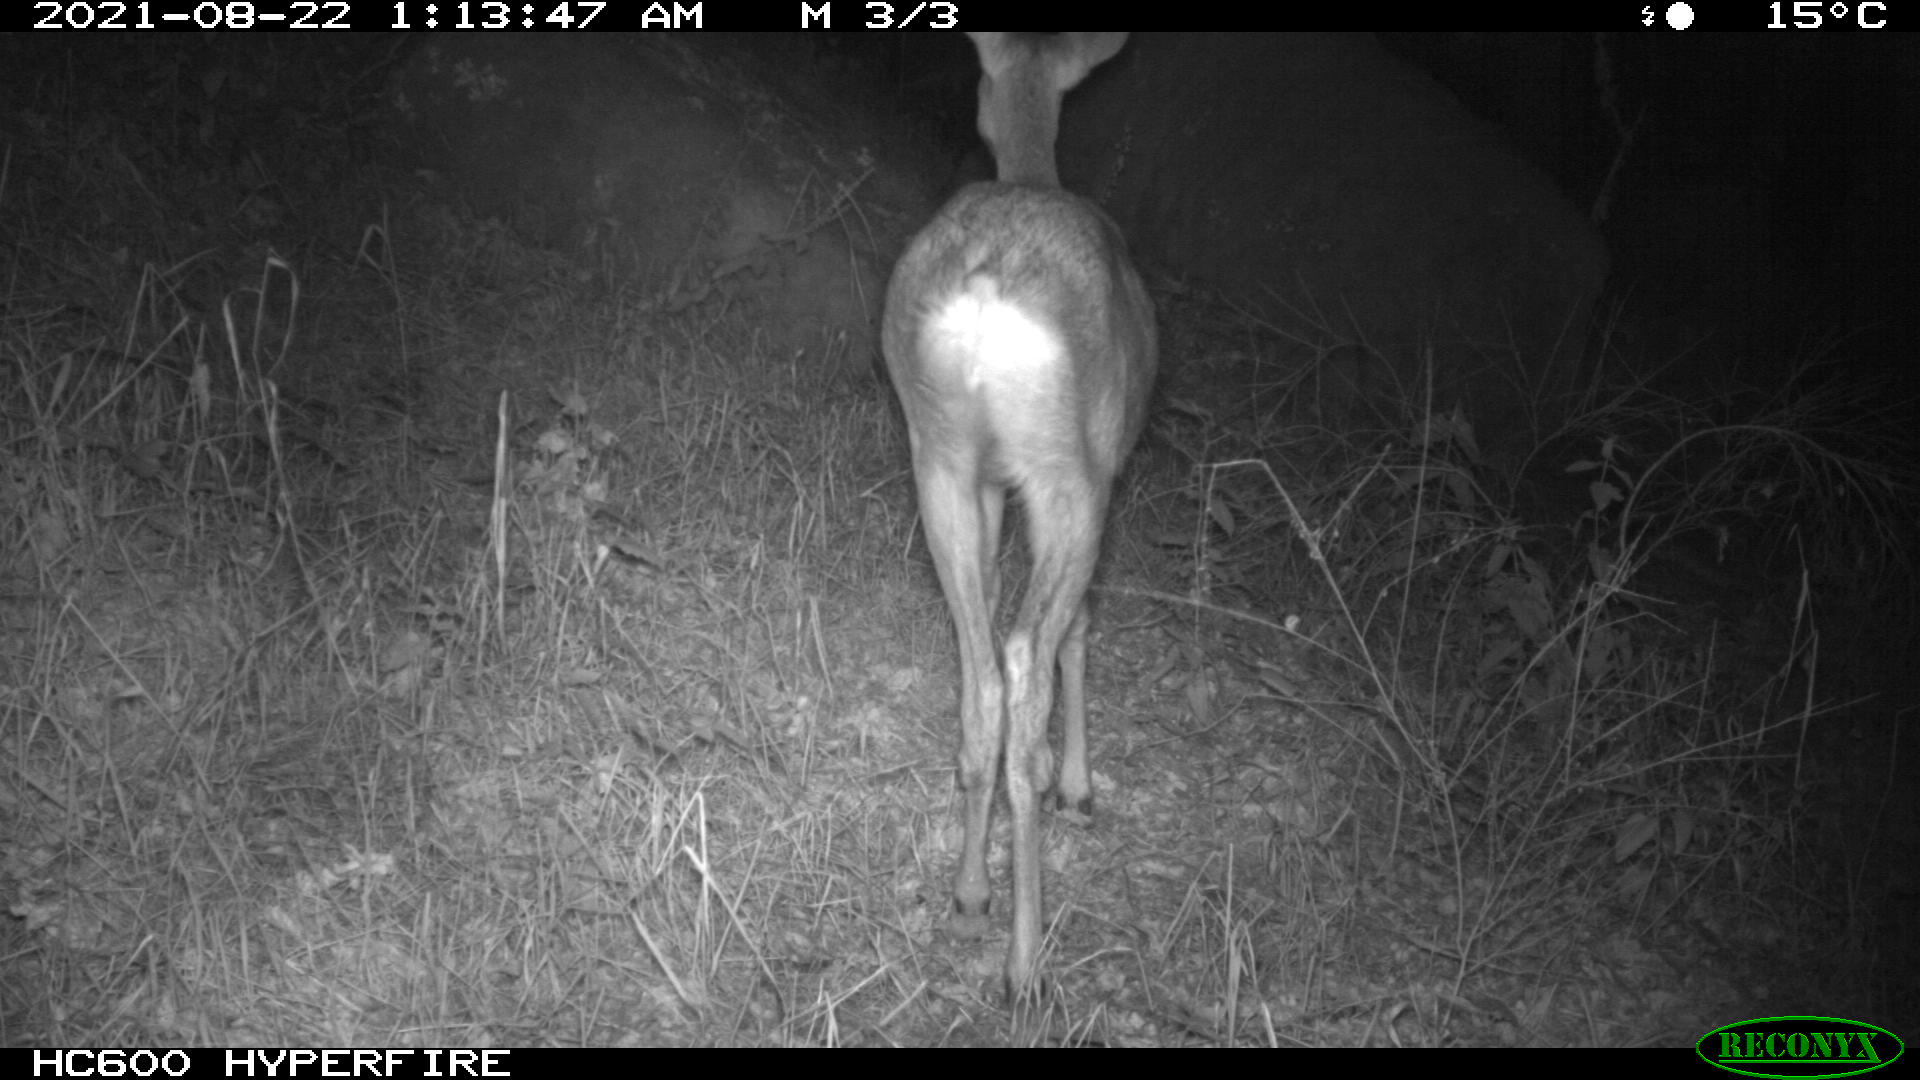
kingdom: Animalia
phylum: Chordata
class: Mammalia
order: Artiodactyla
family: Cervidae
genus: Capreolus
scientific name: Capreolus capreolus
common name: Western roe deer
